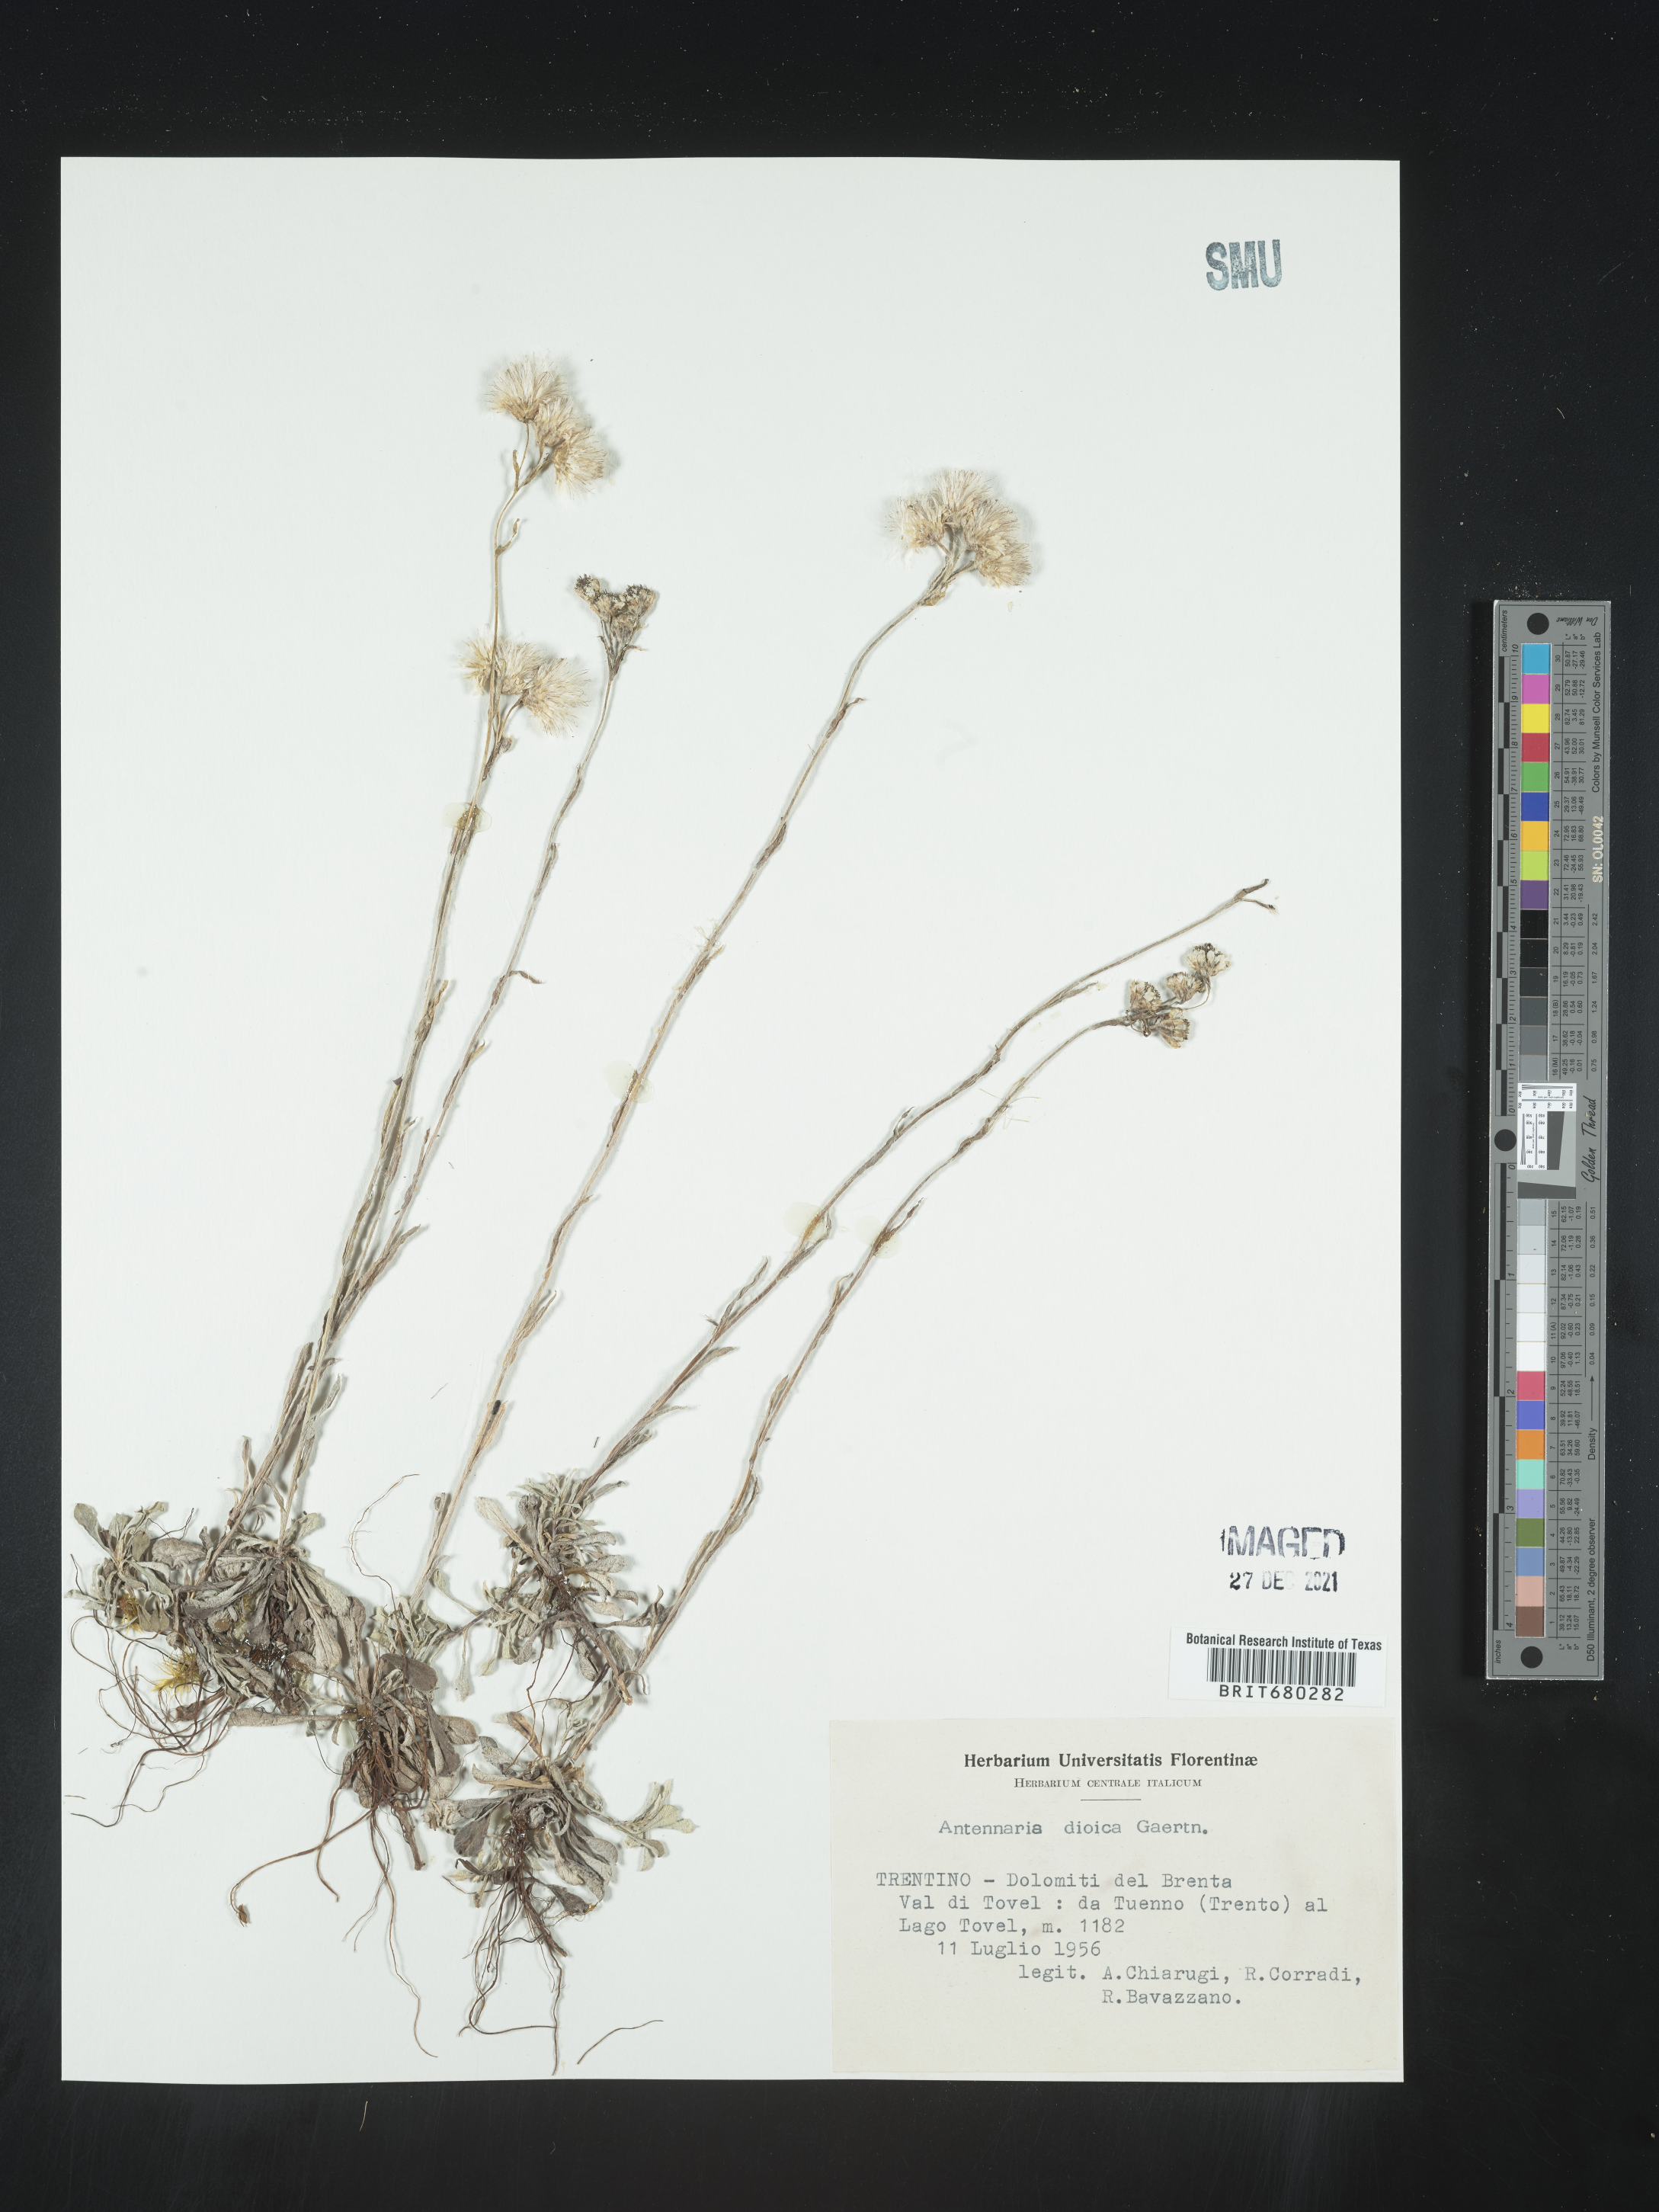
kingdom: Plantae
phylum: Tracheophyta
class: Magnoliopsida
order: Asterales
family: Asteraceae
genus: Antennaria
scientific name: Antennaria dioica
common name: Mountain everlasting
